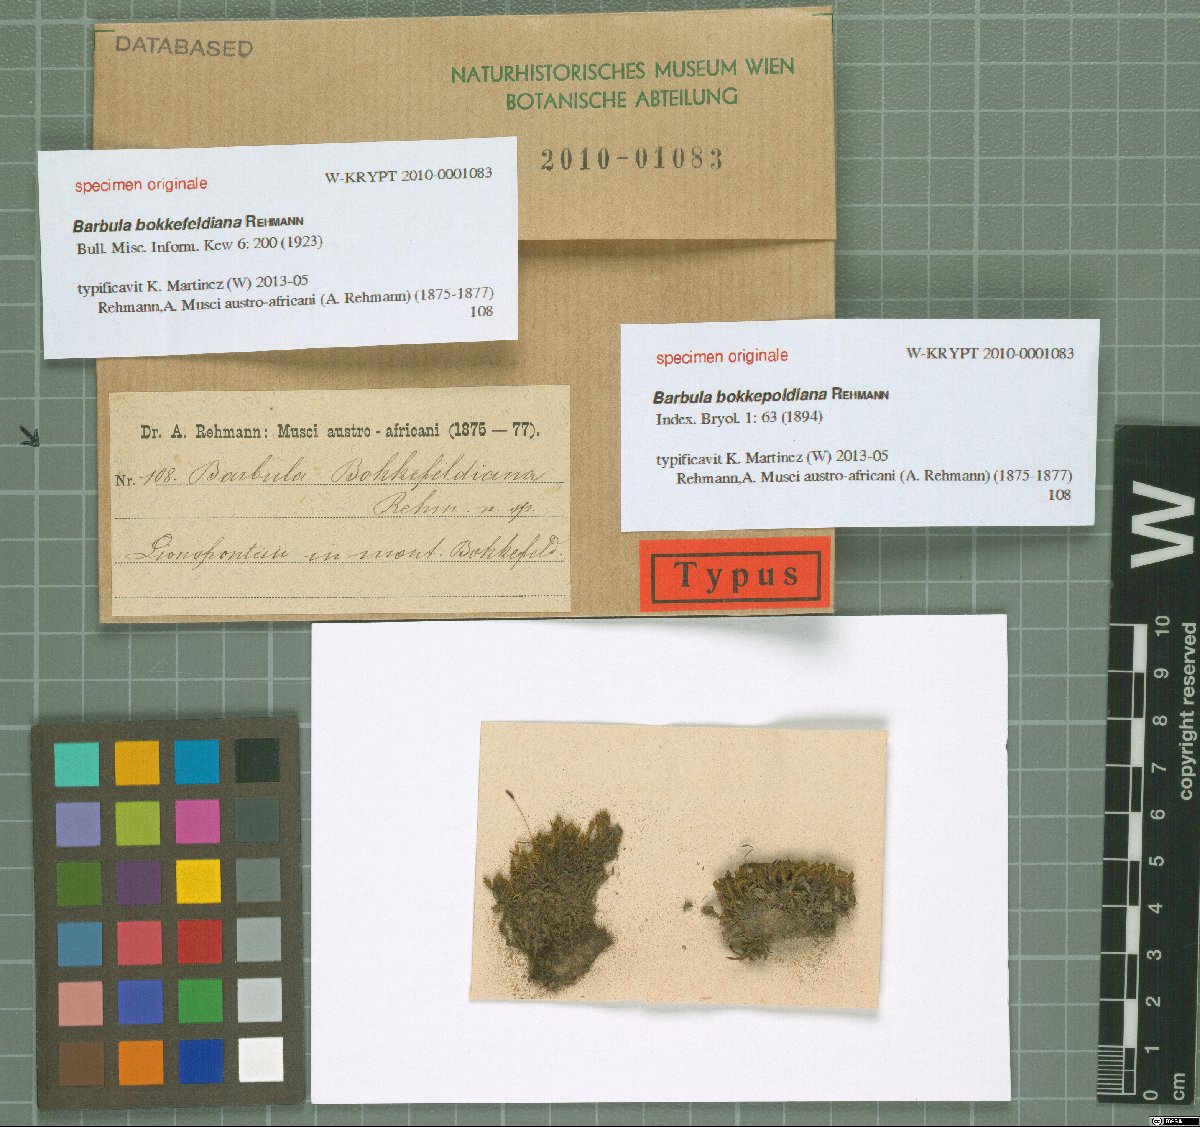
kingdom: Plantae
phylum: Bryophyta
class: Bryopsida
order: Pottiales
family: Pottiaceae
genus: Barbula
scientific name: Barbula
